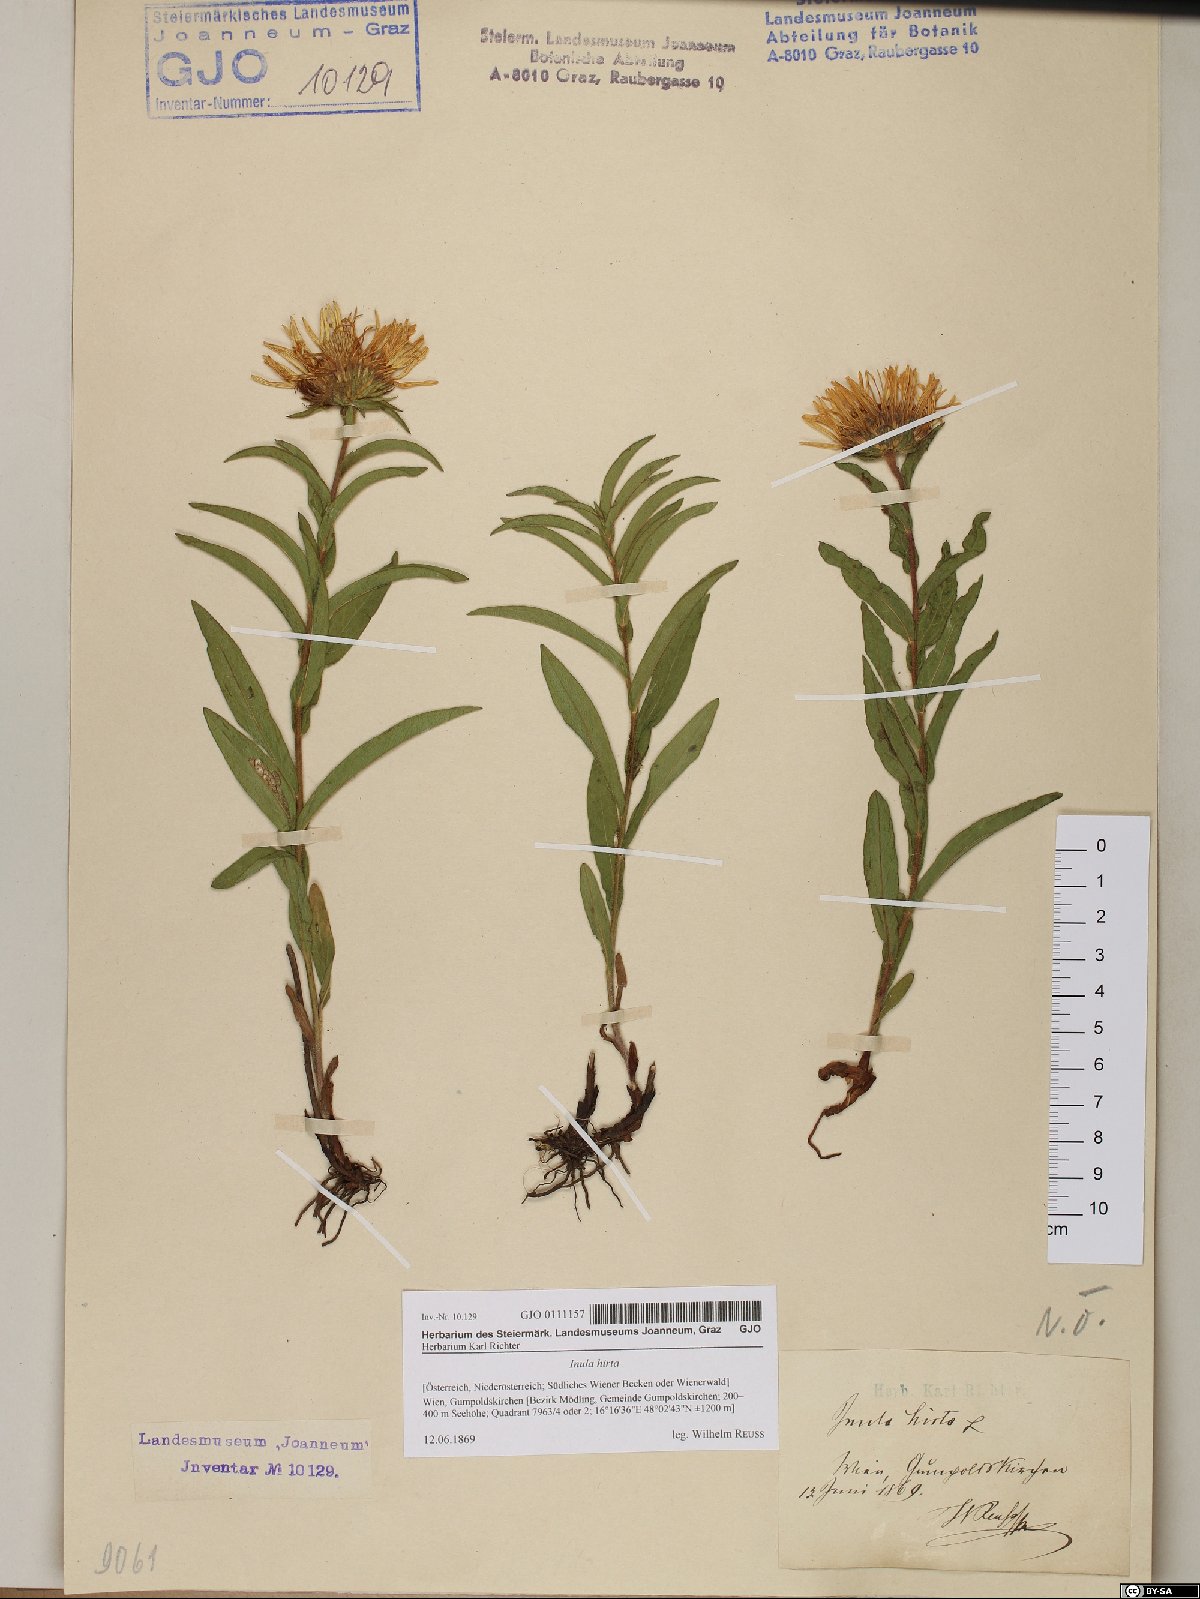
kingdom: Plantae
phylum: Tracheophyta
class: Magnoliopsida
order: Asterales
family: Asteraceae
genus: Pentanema
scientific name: Pentanema hirtum
